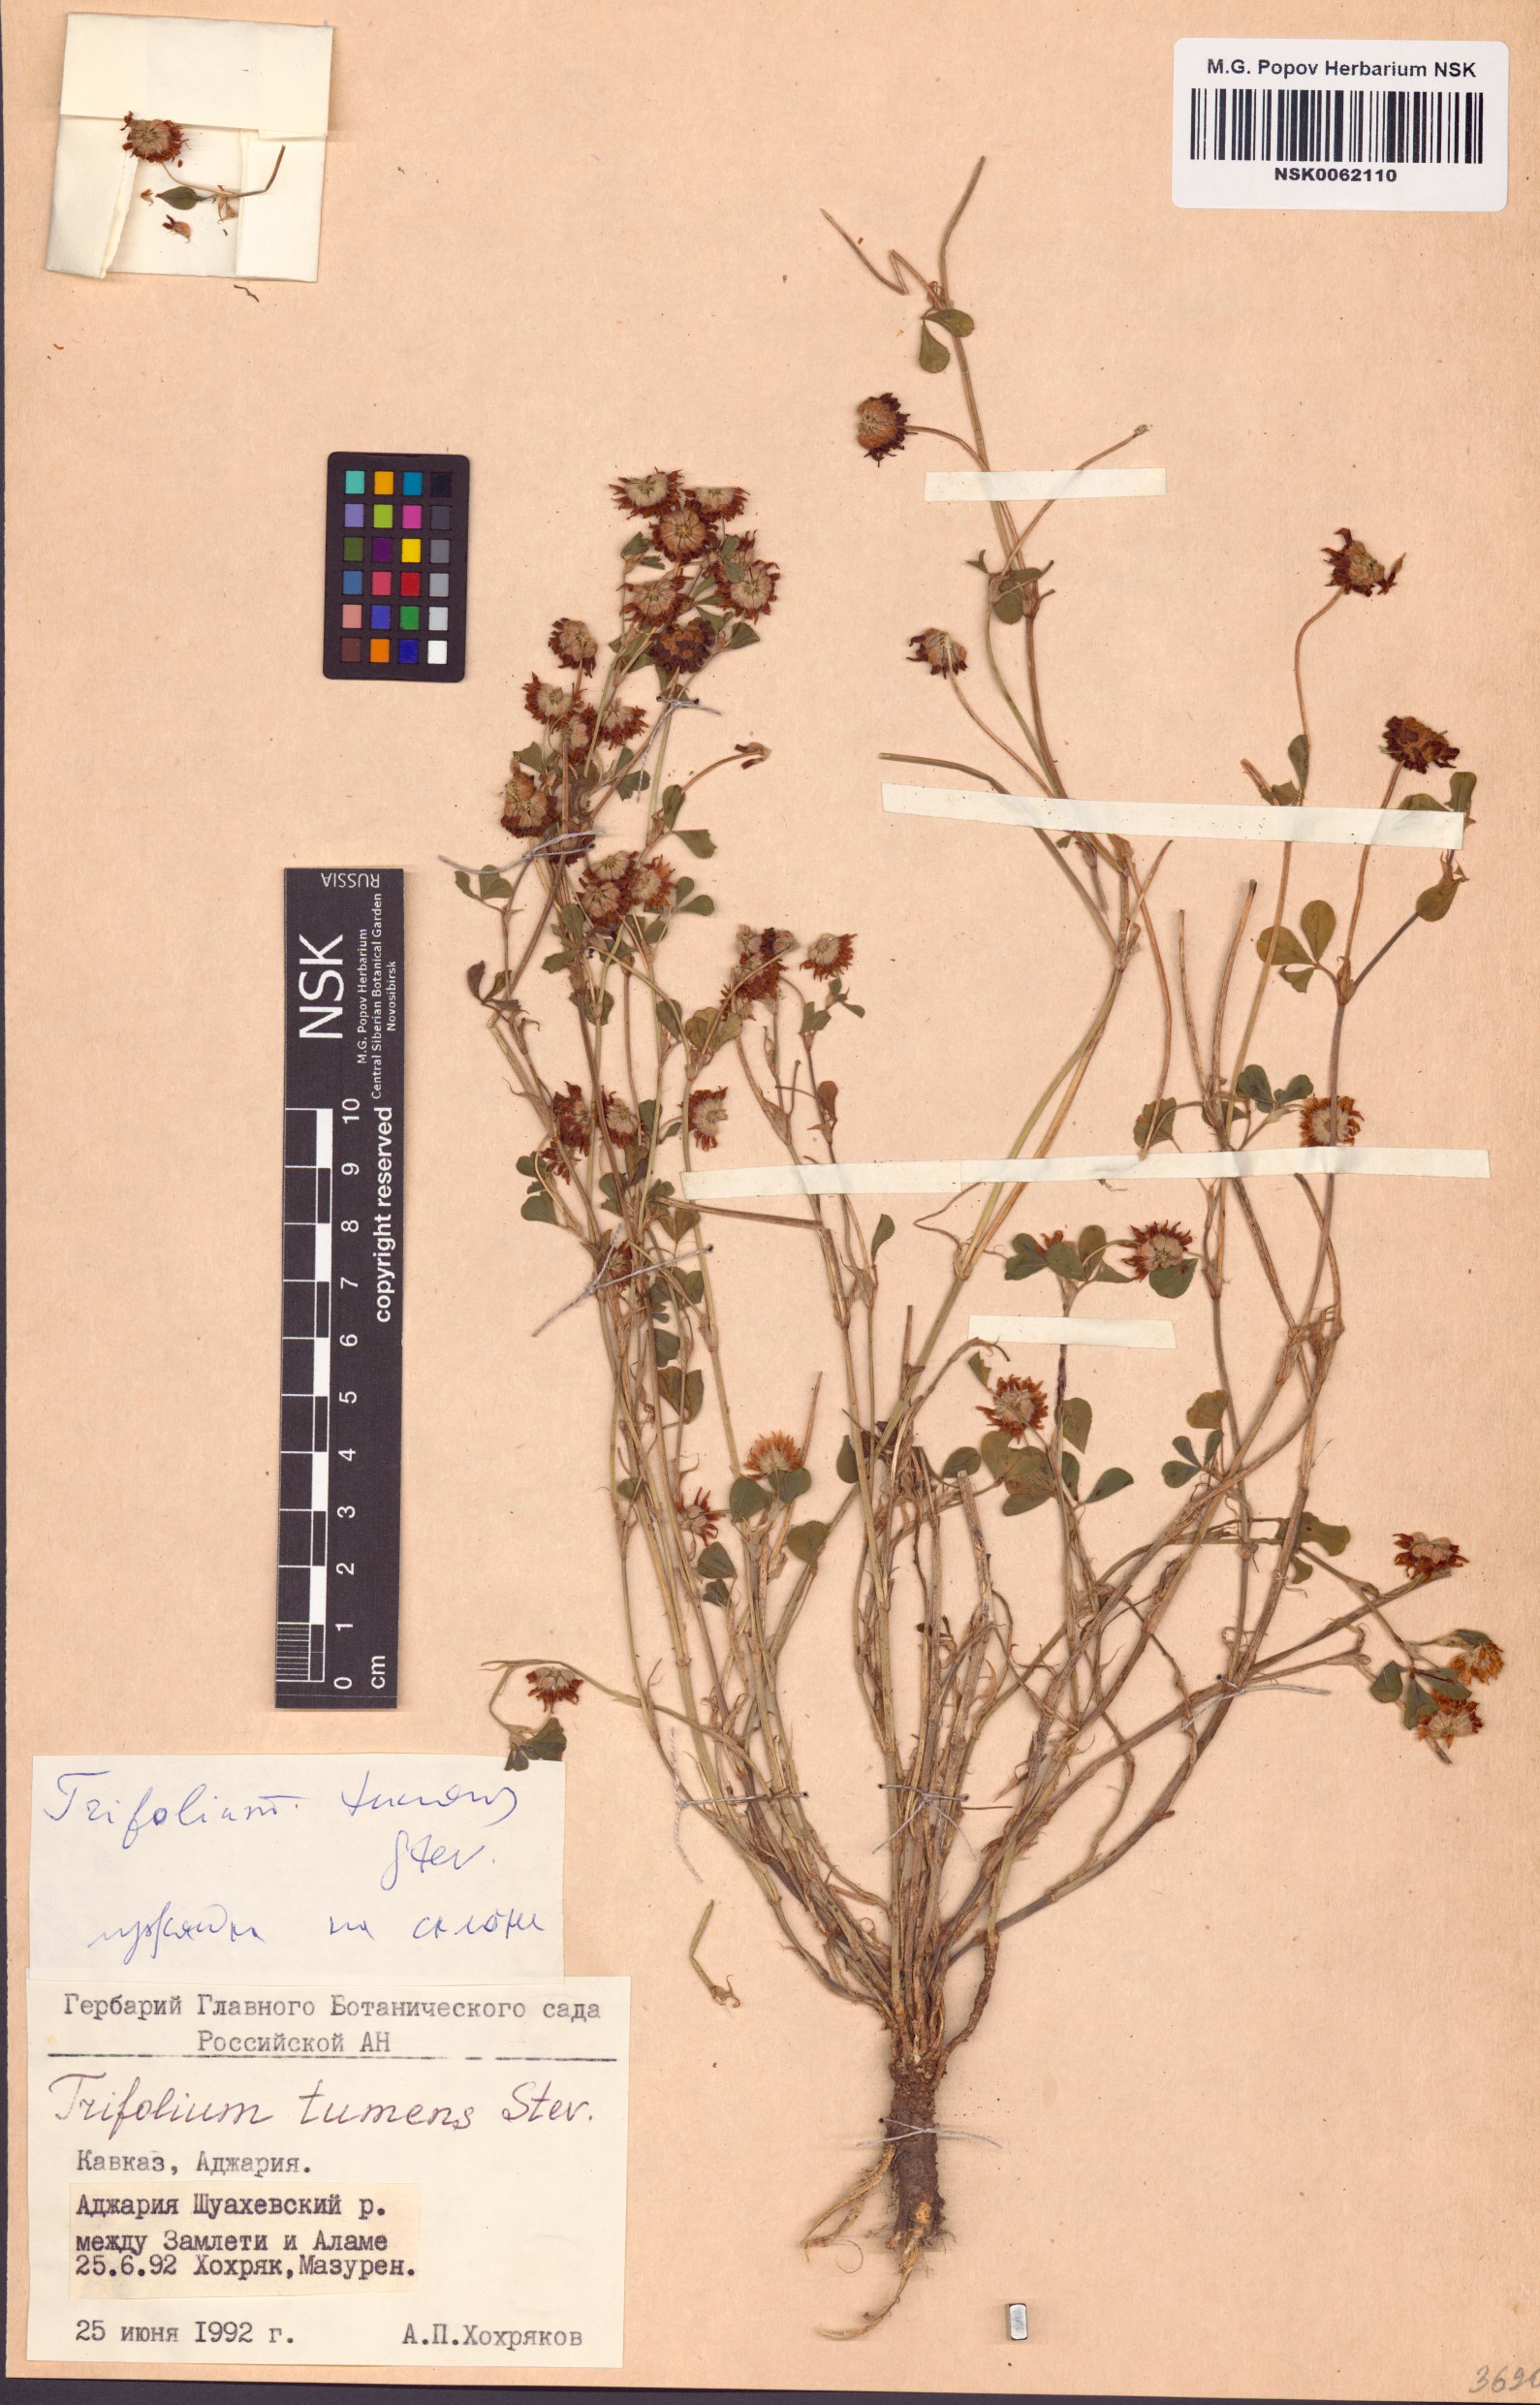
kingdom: Plantae
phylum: Tracheophyta
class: Magnoliopsida
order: Fabales
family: Fabaceae
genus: Trifolium
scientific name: Trifolium tumens
